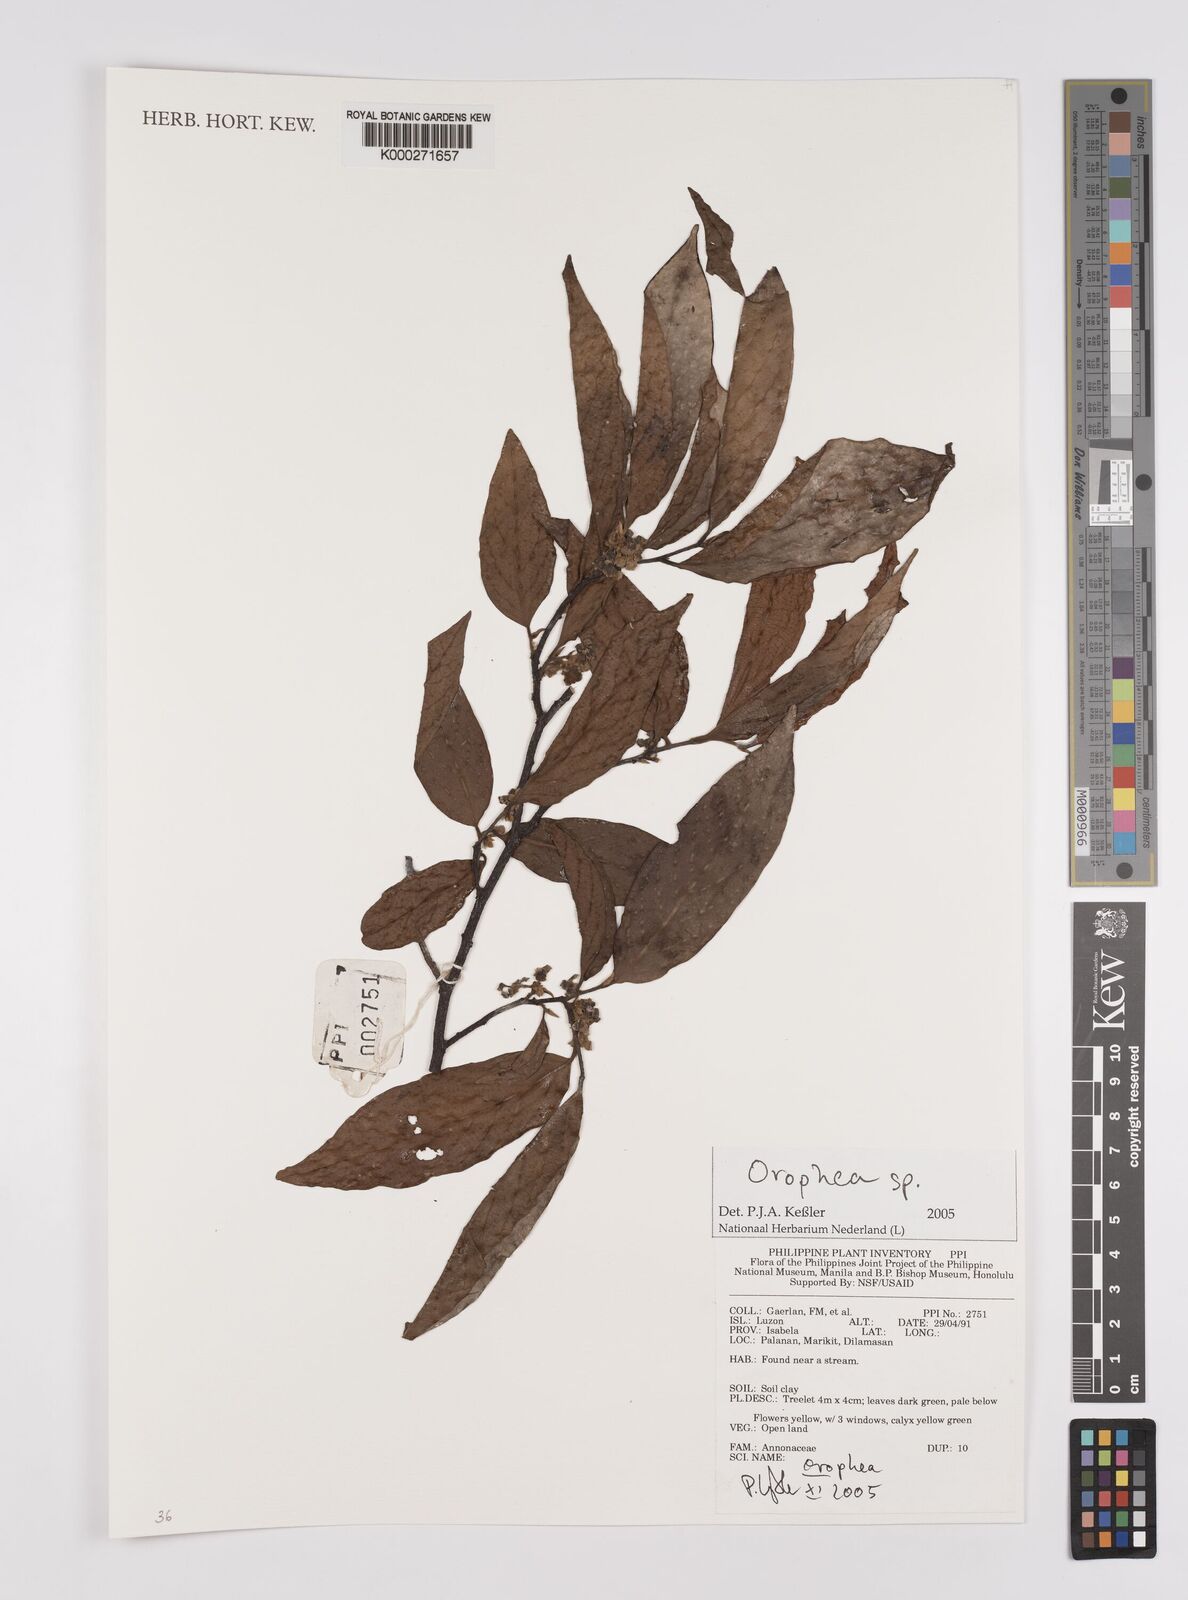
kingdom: Plantae
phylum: Tracheophyta
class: Magnoliopsida
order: Magnoliales
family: Annonaceae
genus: Orophea
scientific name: Orophea
